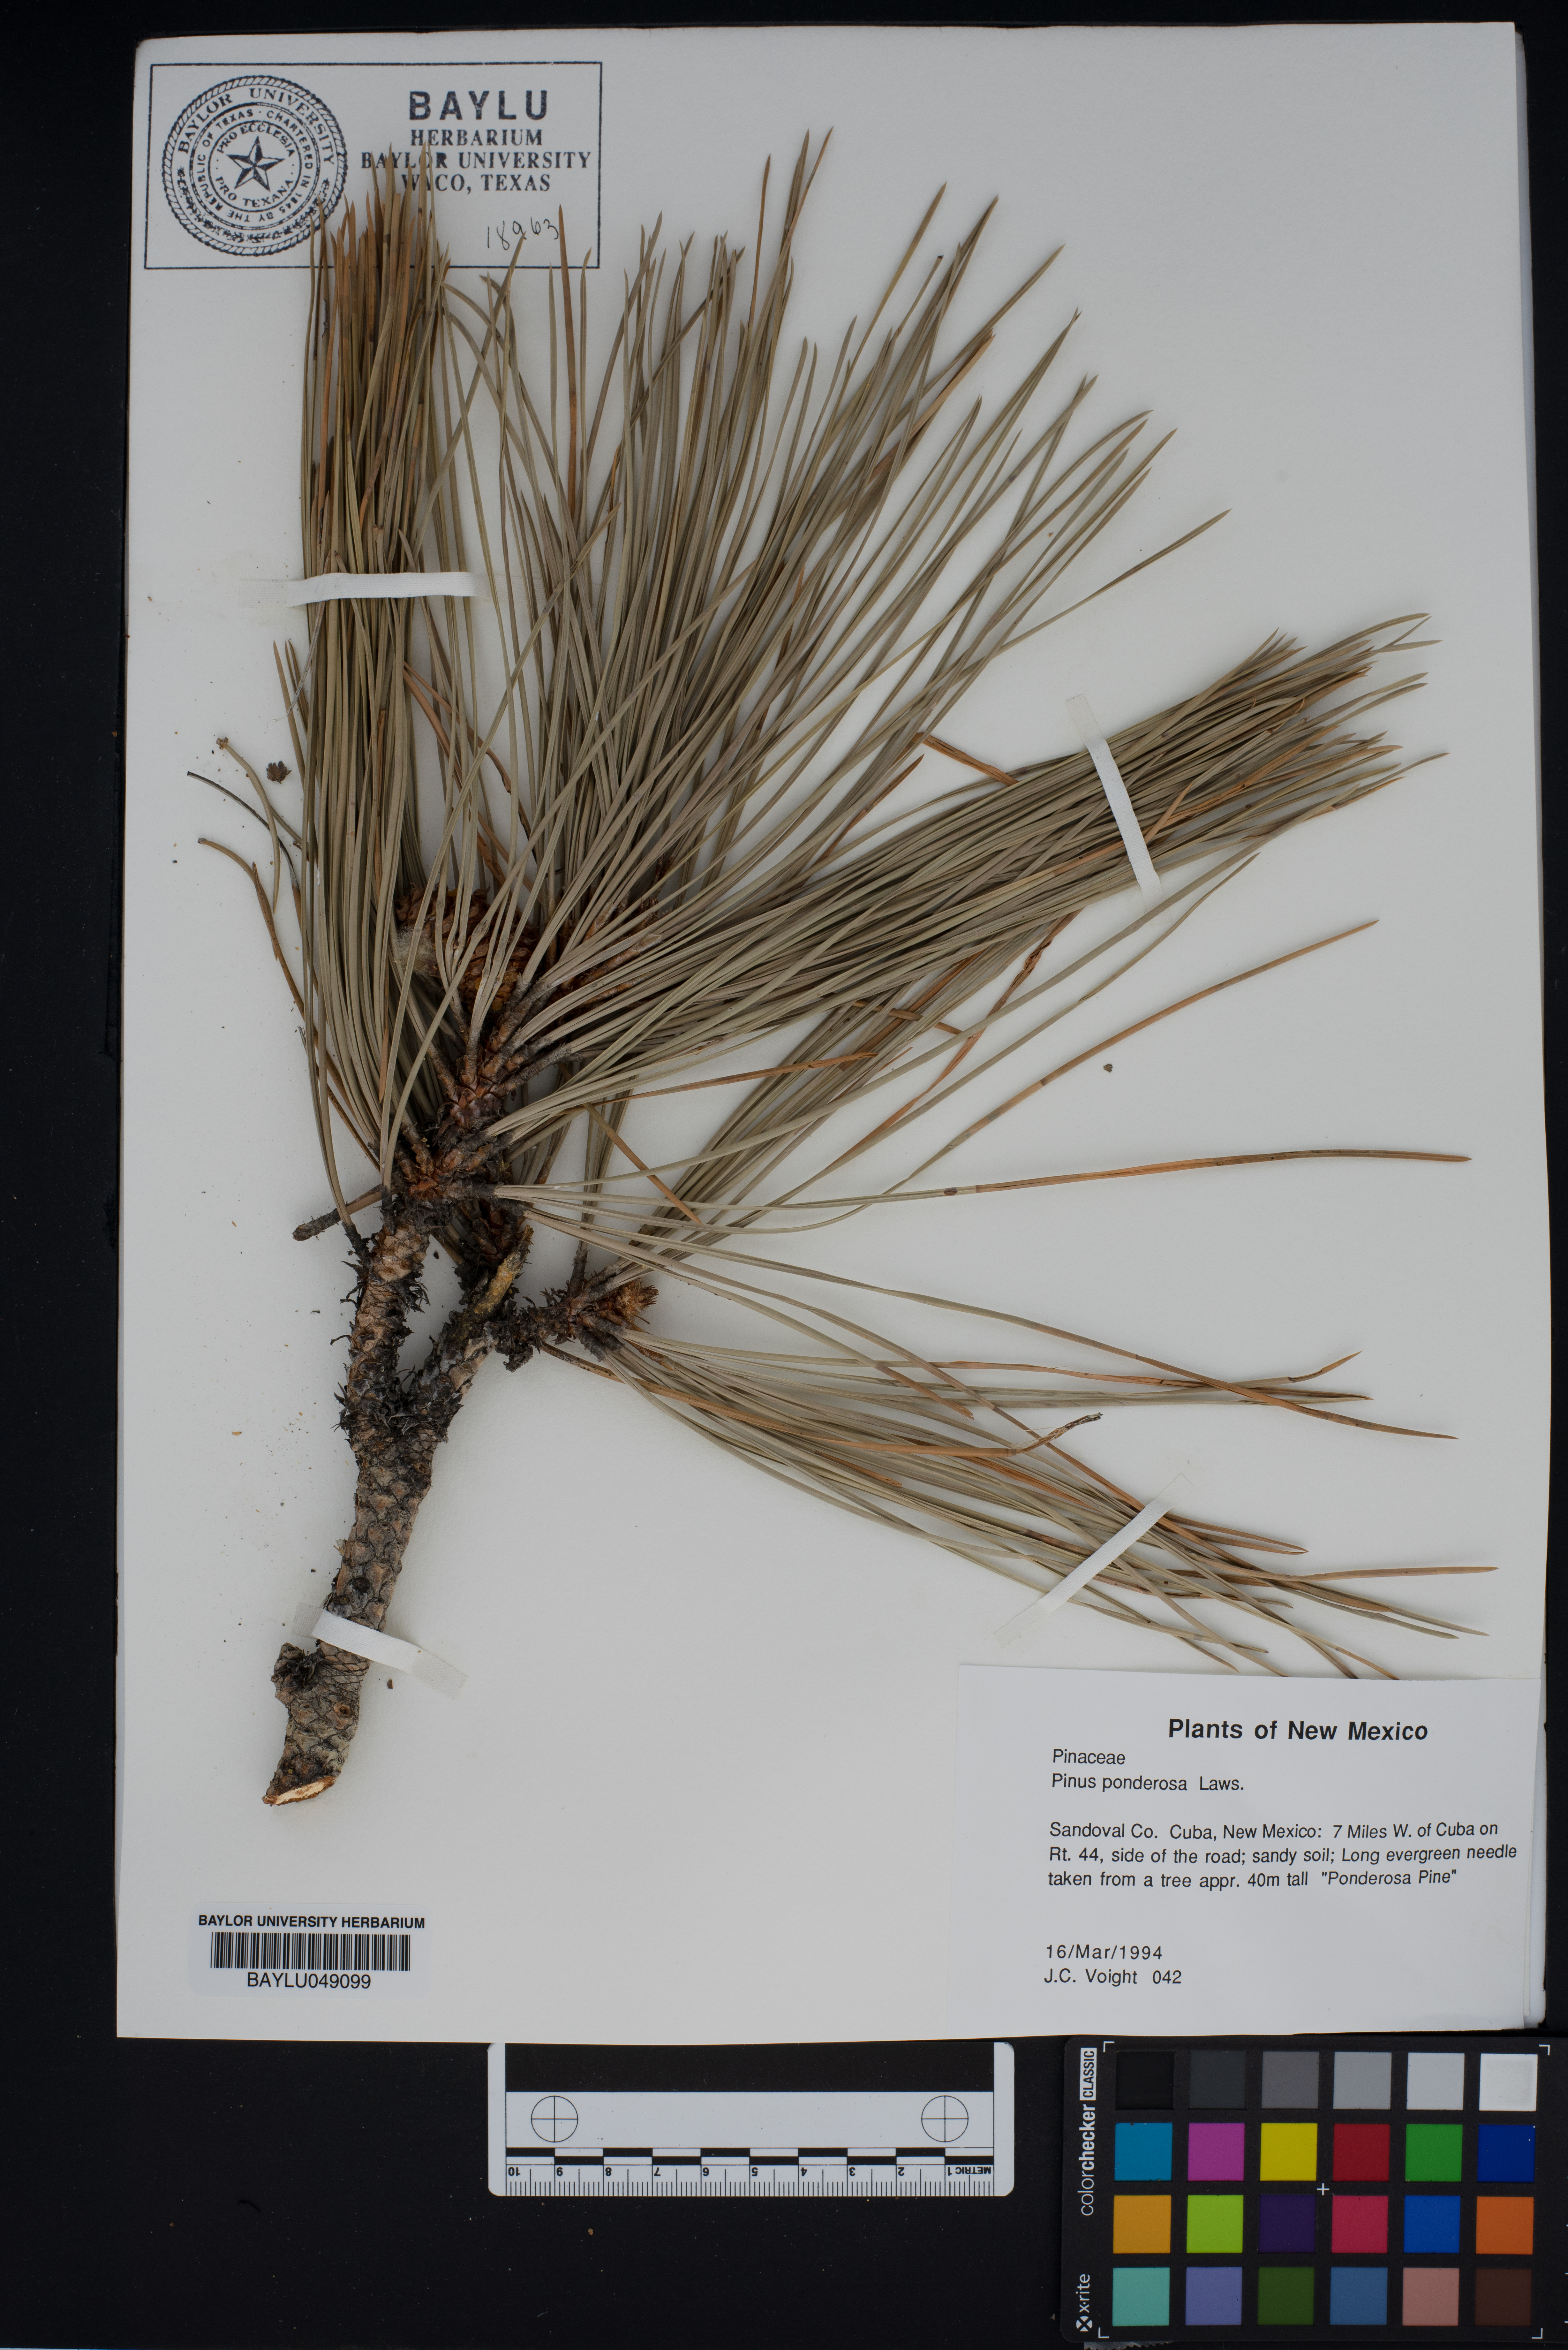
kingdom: Plantae
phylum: Tracheophyta
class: Pinopsida
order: Pinales
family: Pinaceae
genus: Pinus
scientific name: Pinus ponderosa
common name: Western yellow-pine
